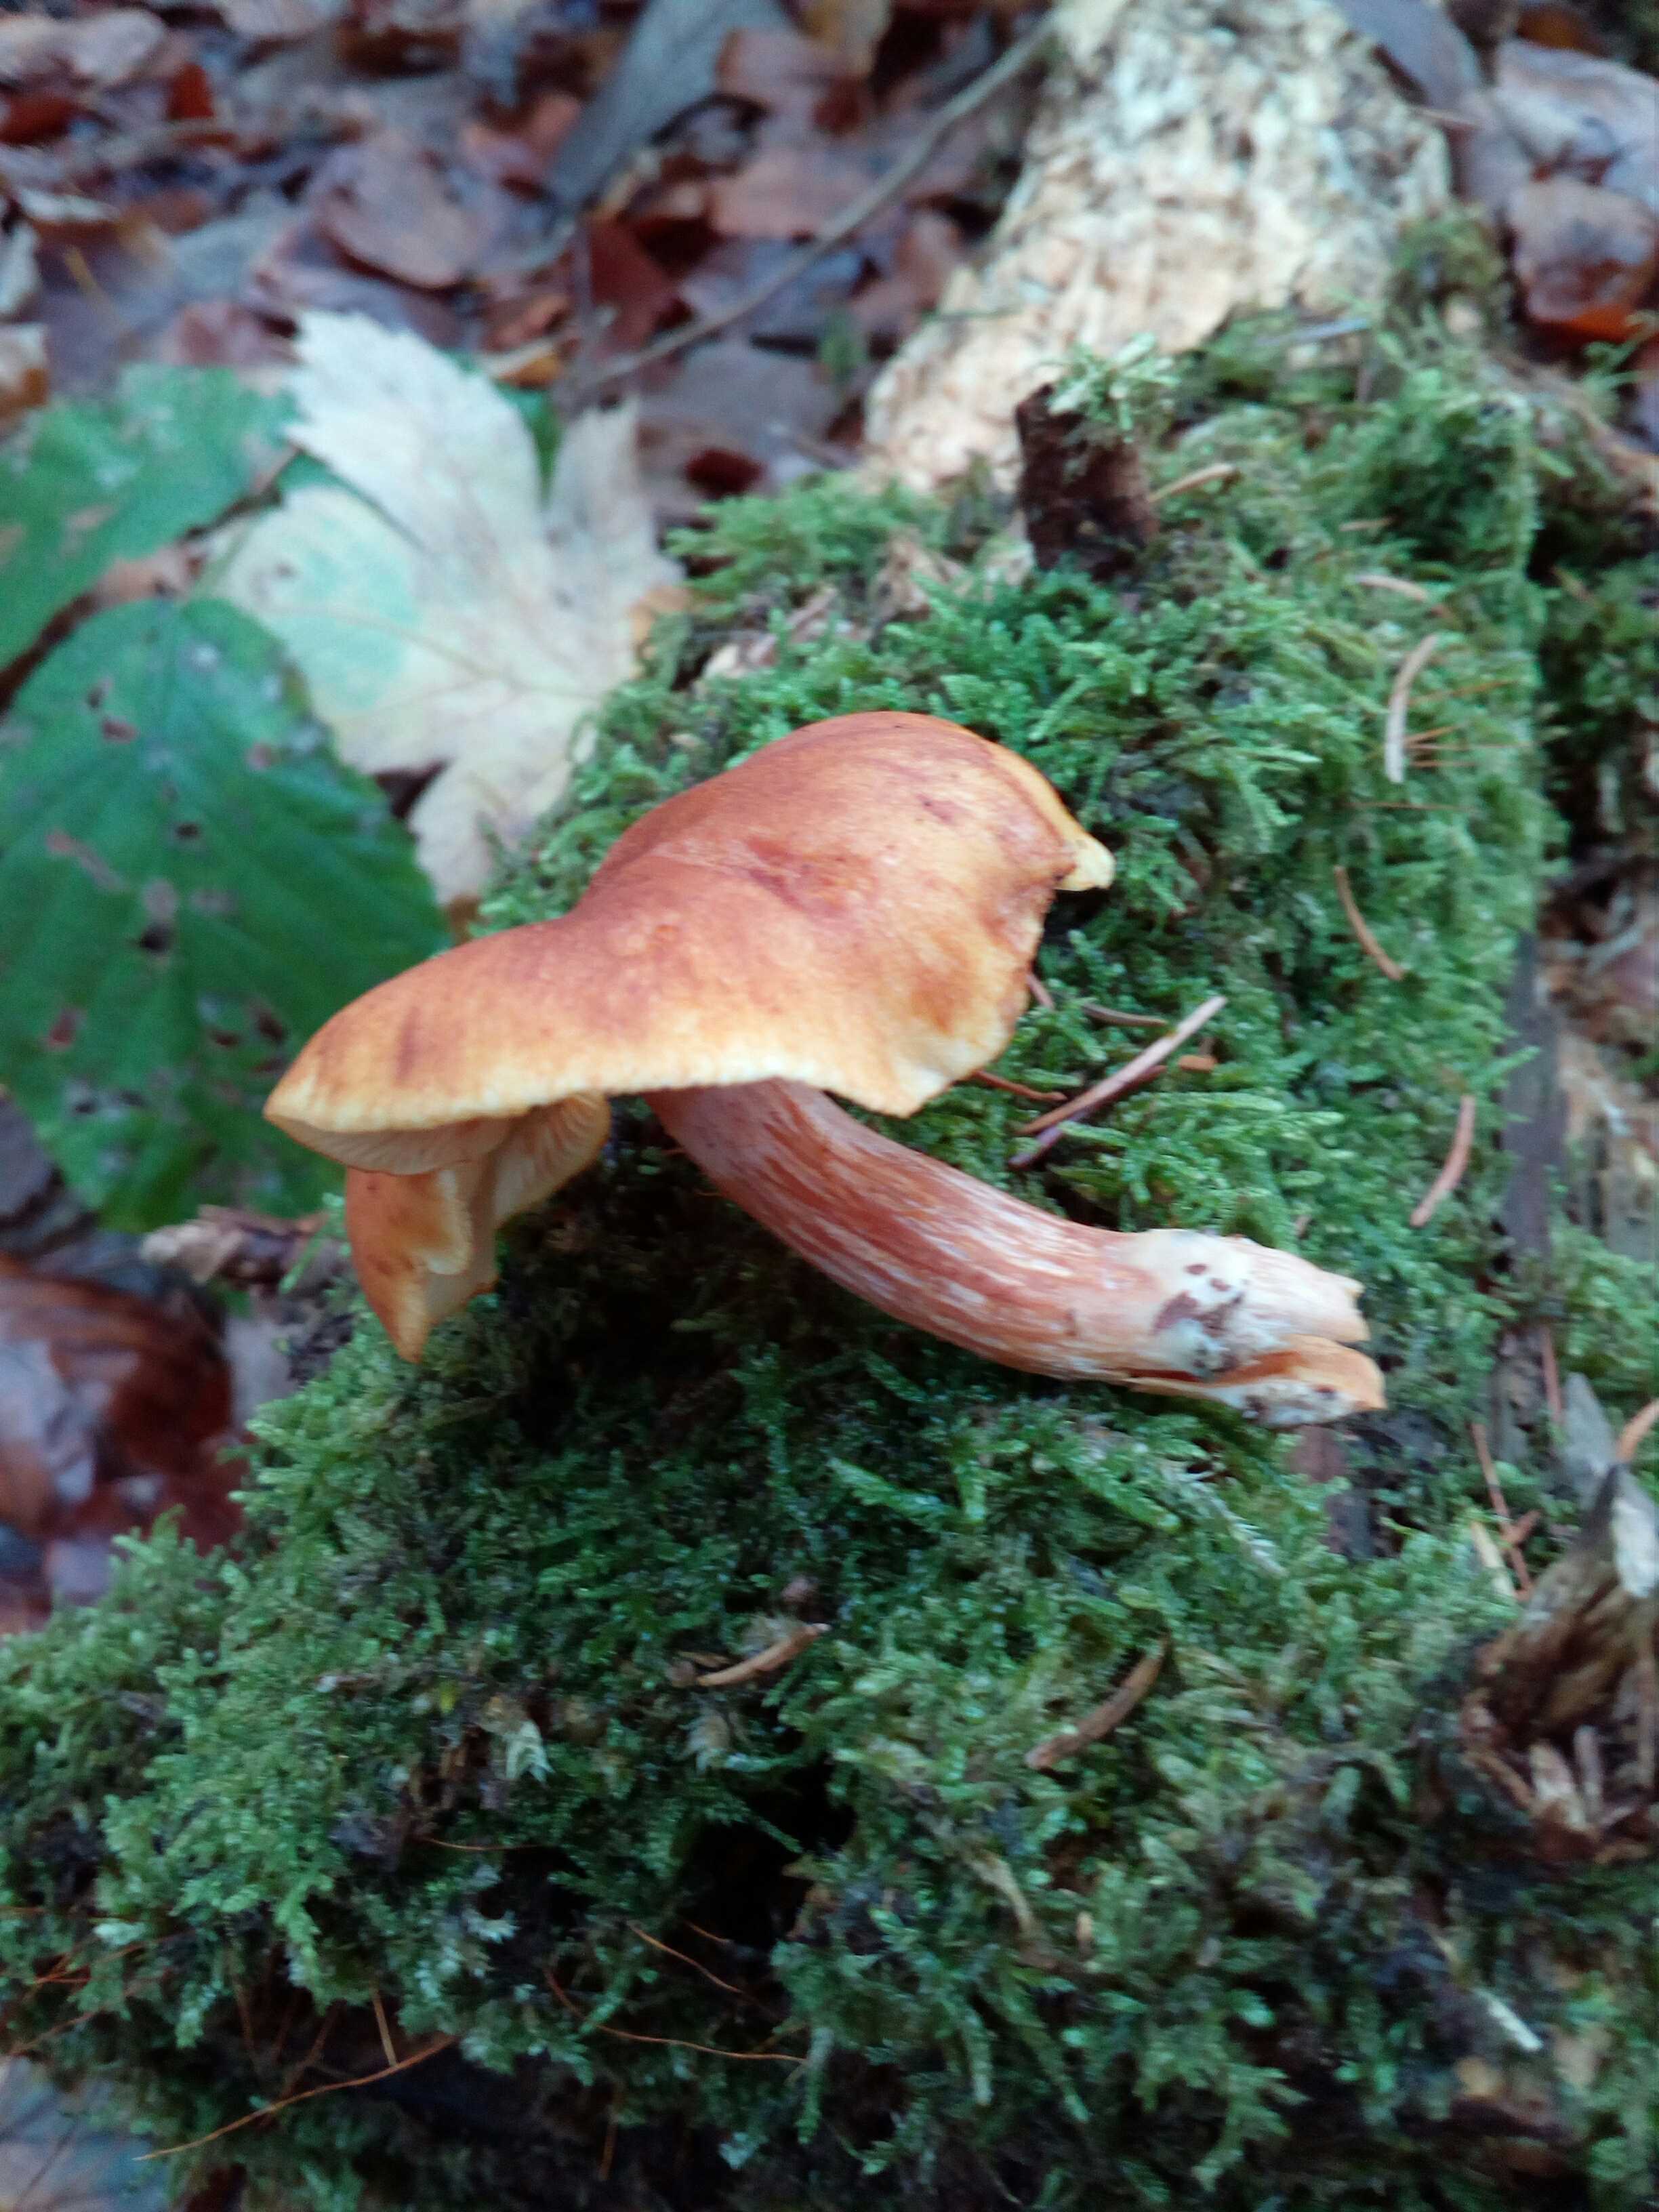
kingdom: Fungi
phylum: Basidiomycota
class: Agaricomycetes
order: Agaricales
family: Hymenogastraceae
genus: Gymnopilus
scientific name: Gymnopilus penetrans
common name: plettet flammehat
